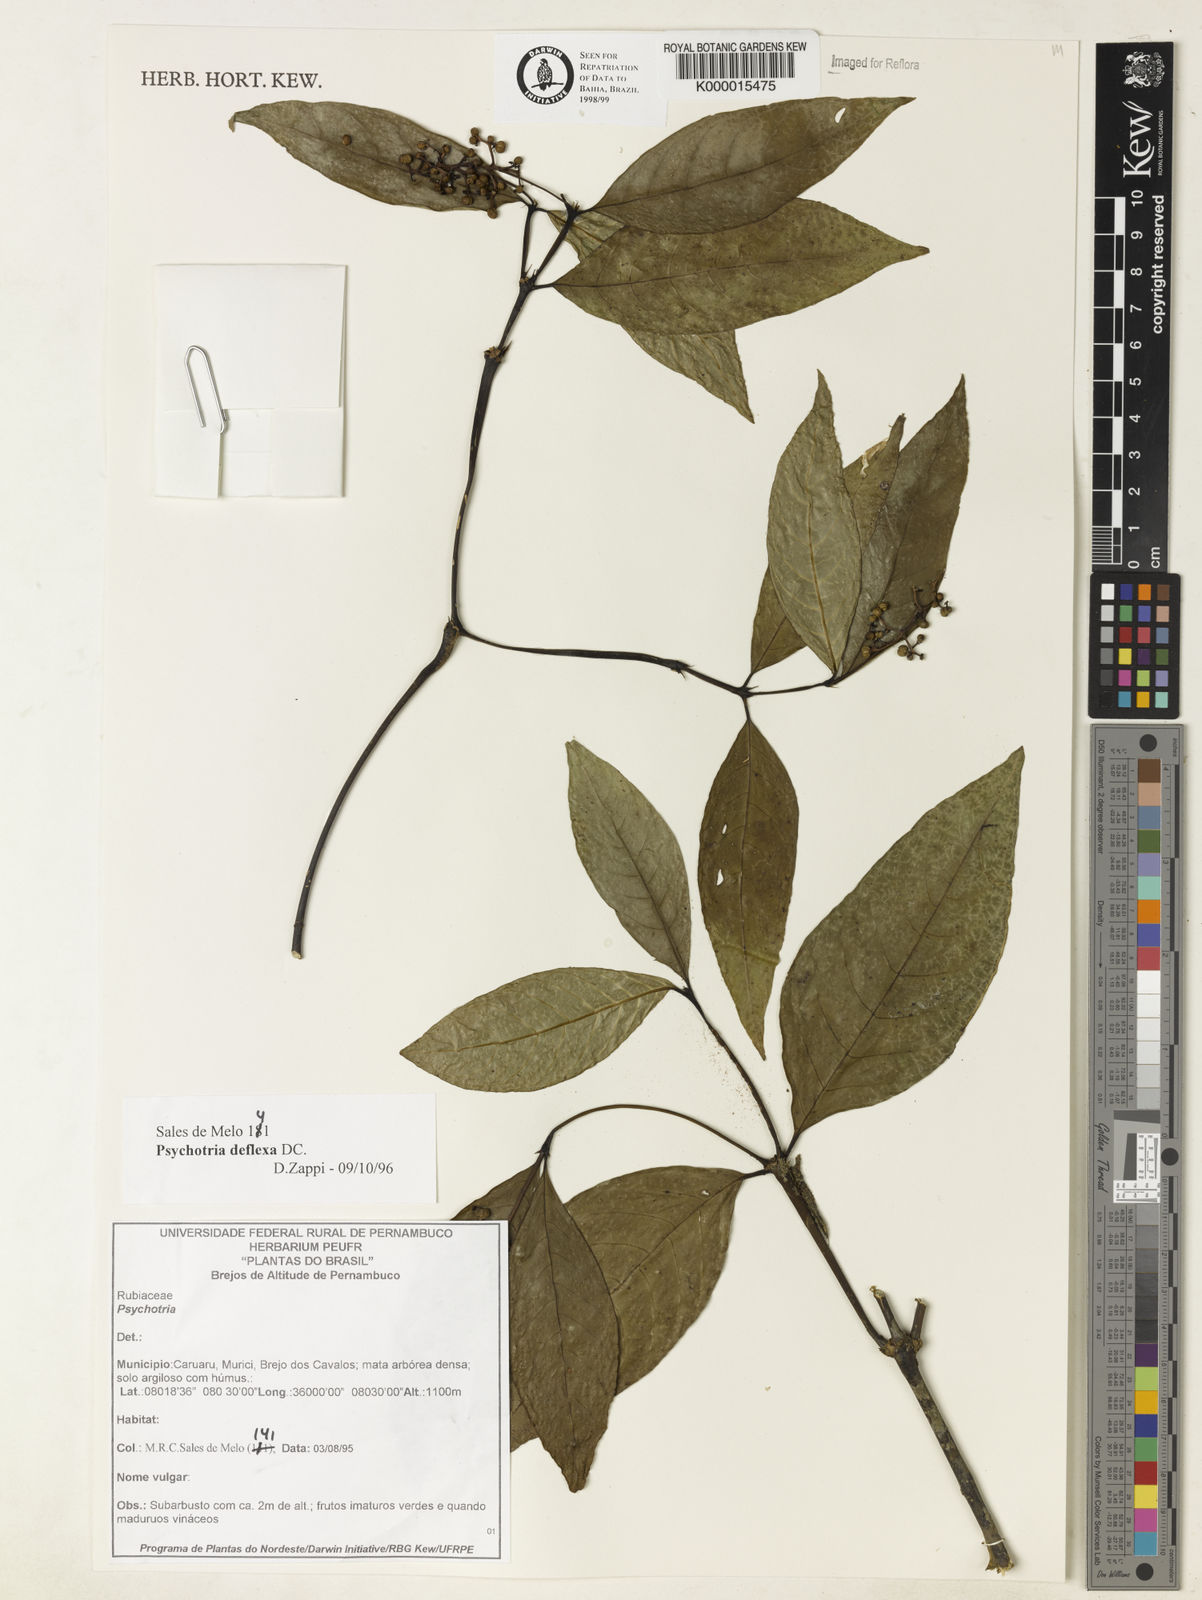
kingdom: Plantae
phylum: Tracheophyta
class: Magnoliopsida
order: Gentianales
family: Rubiaceae
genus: Palicourea
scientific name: Palicourea deflexa
